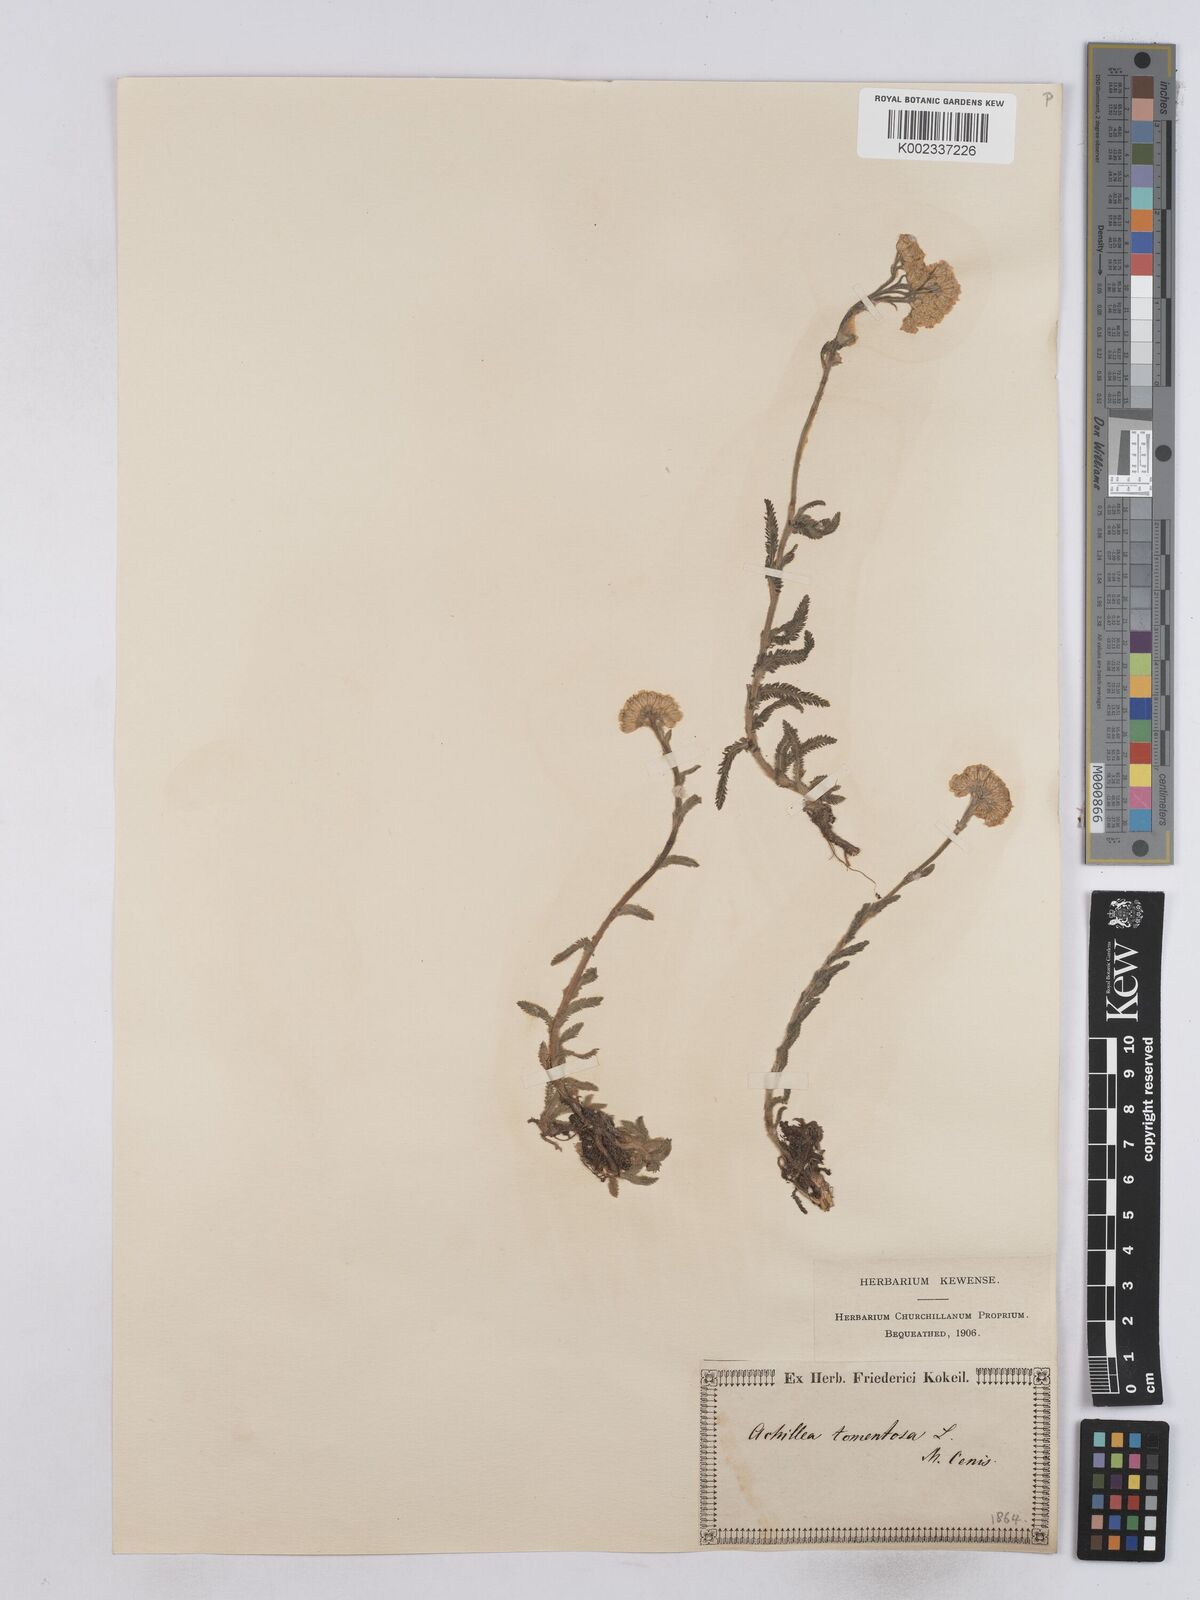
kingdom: Plantae
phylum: Tracheophyta
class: Magnoliopsida
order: Asterales
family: Asteraceae
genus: Achillea
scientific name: Achillea tomentosa
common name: Yellow milfoil
